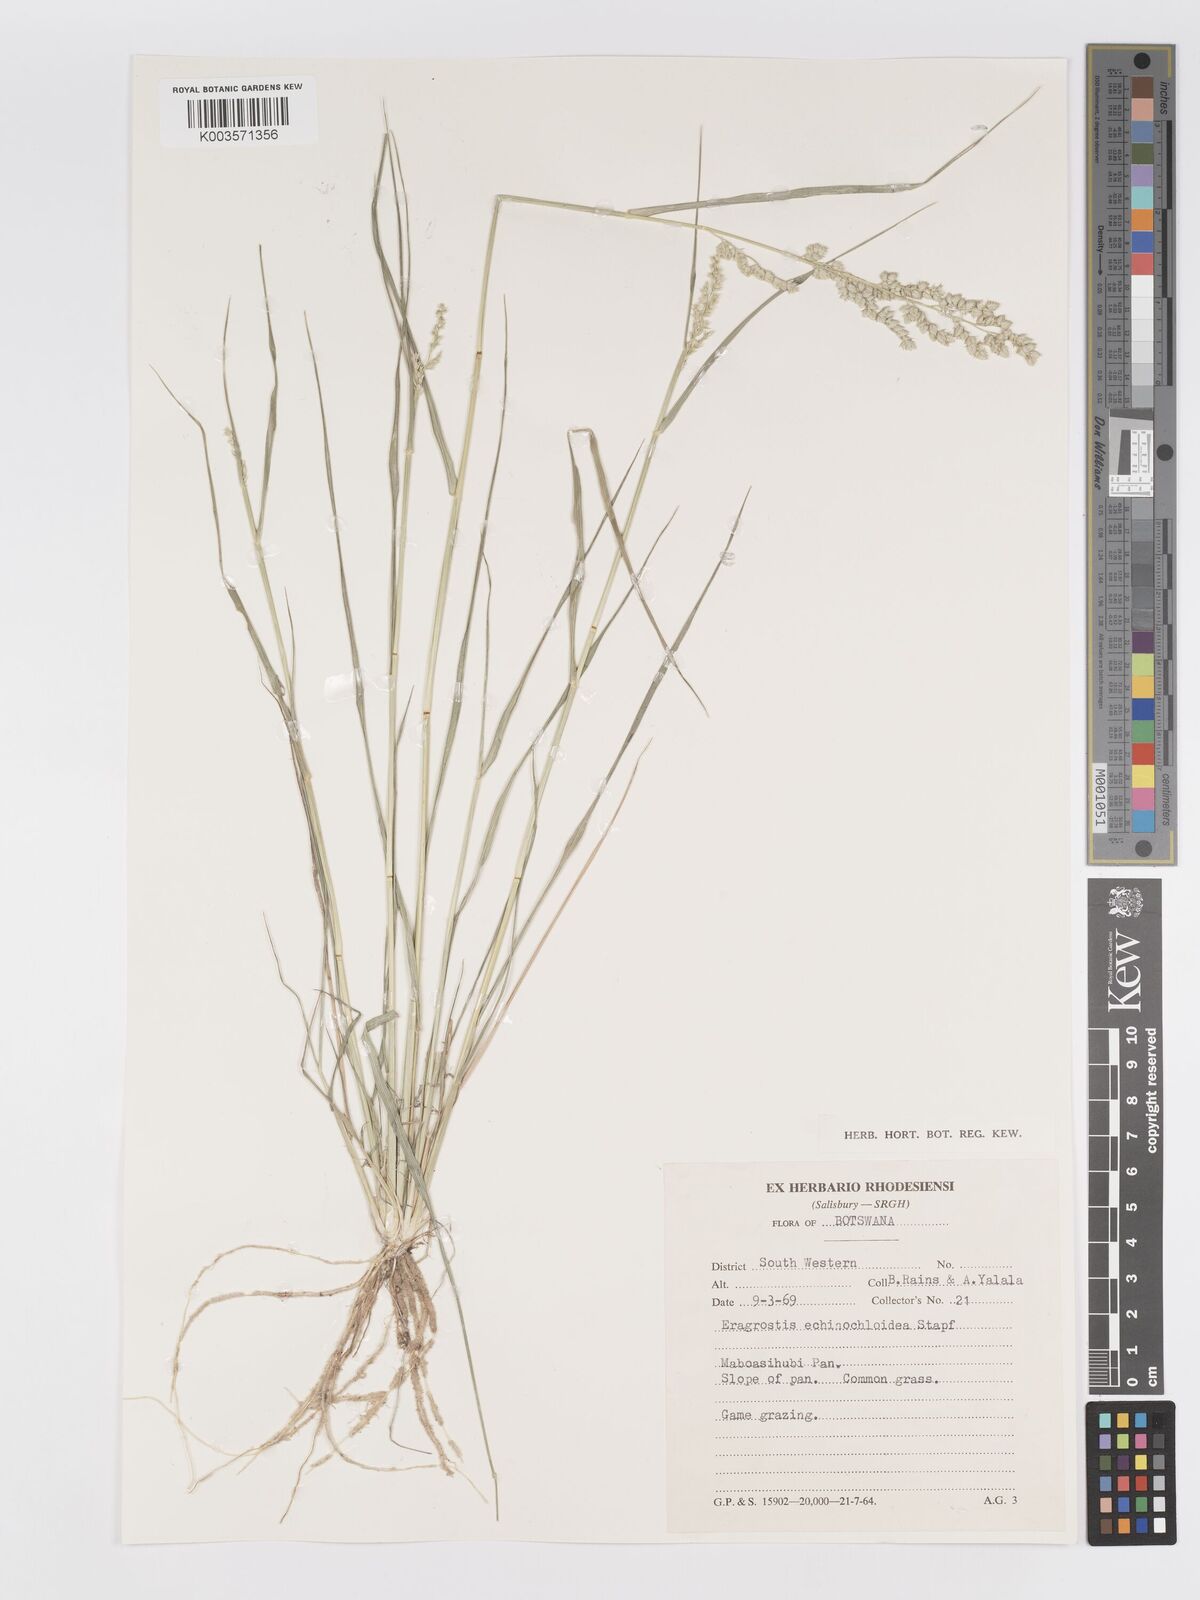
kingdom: Plantae
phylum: Tracheophyta
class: Liliopsida
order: Poales
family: Poaceae
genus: Eragrostis
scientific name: Eragrostis echinochloidea
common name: African lovegrass
